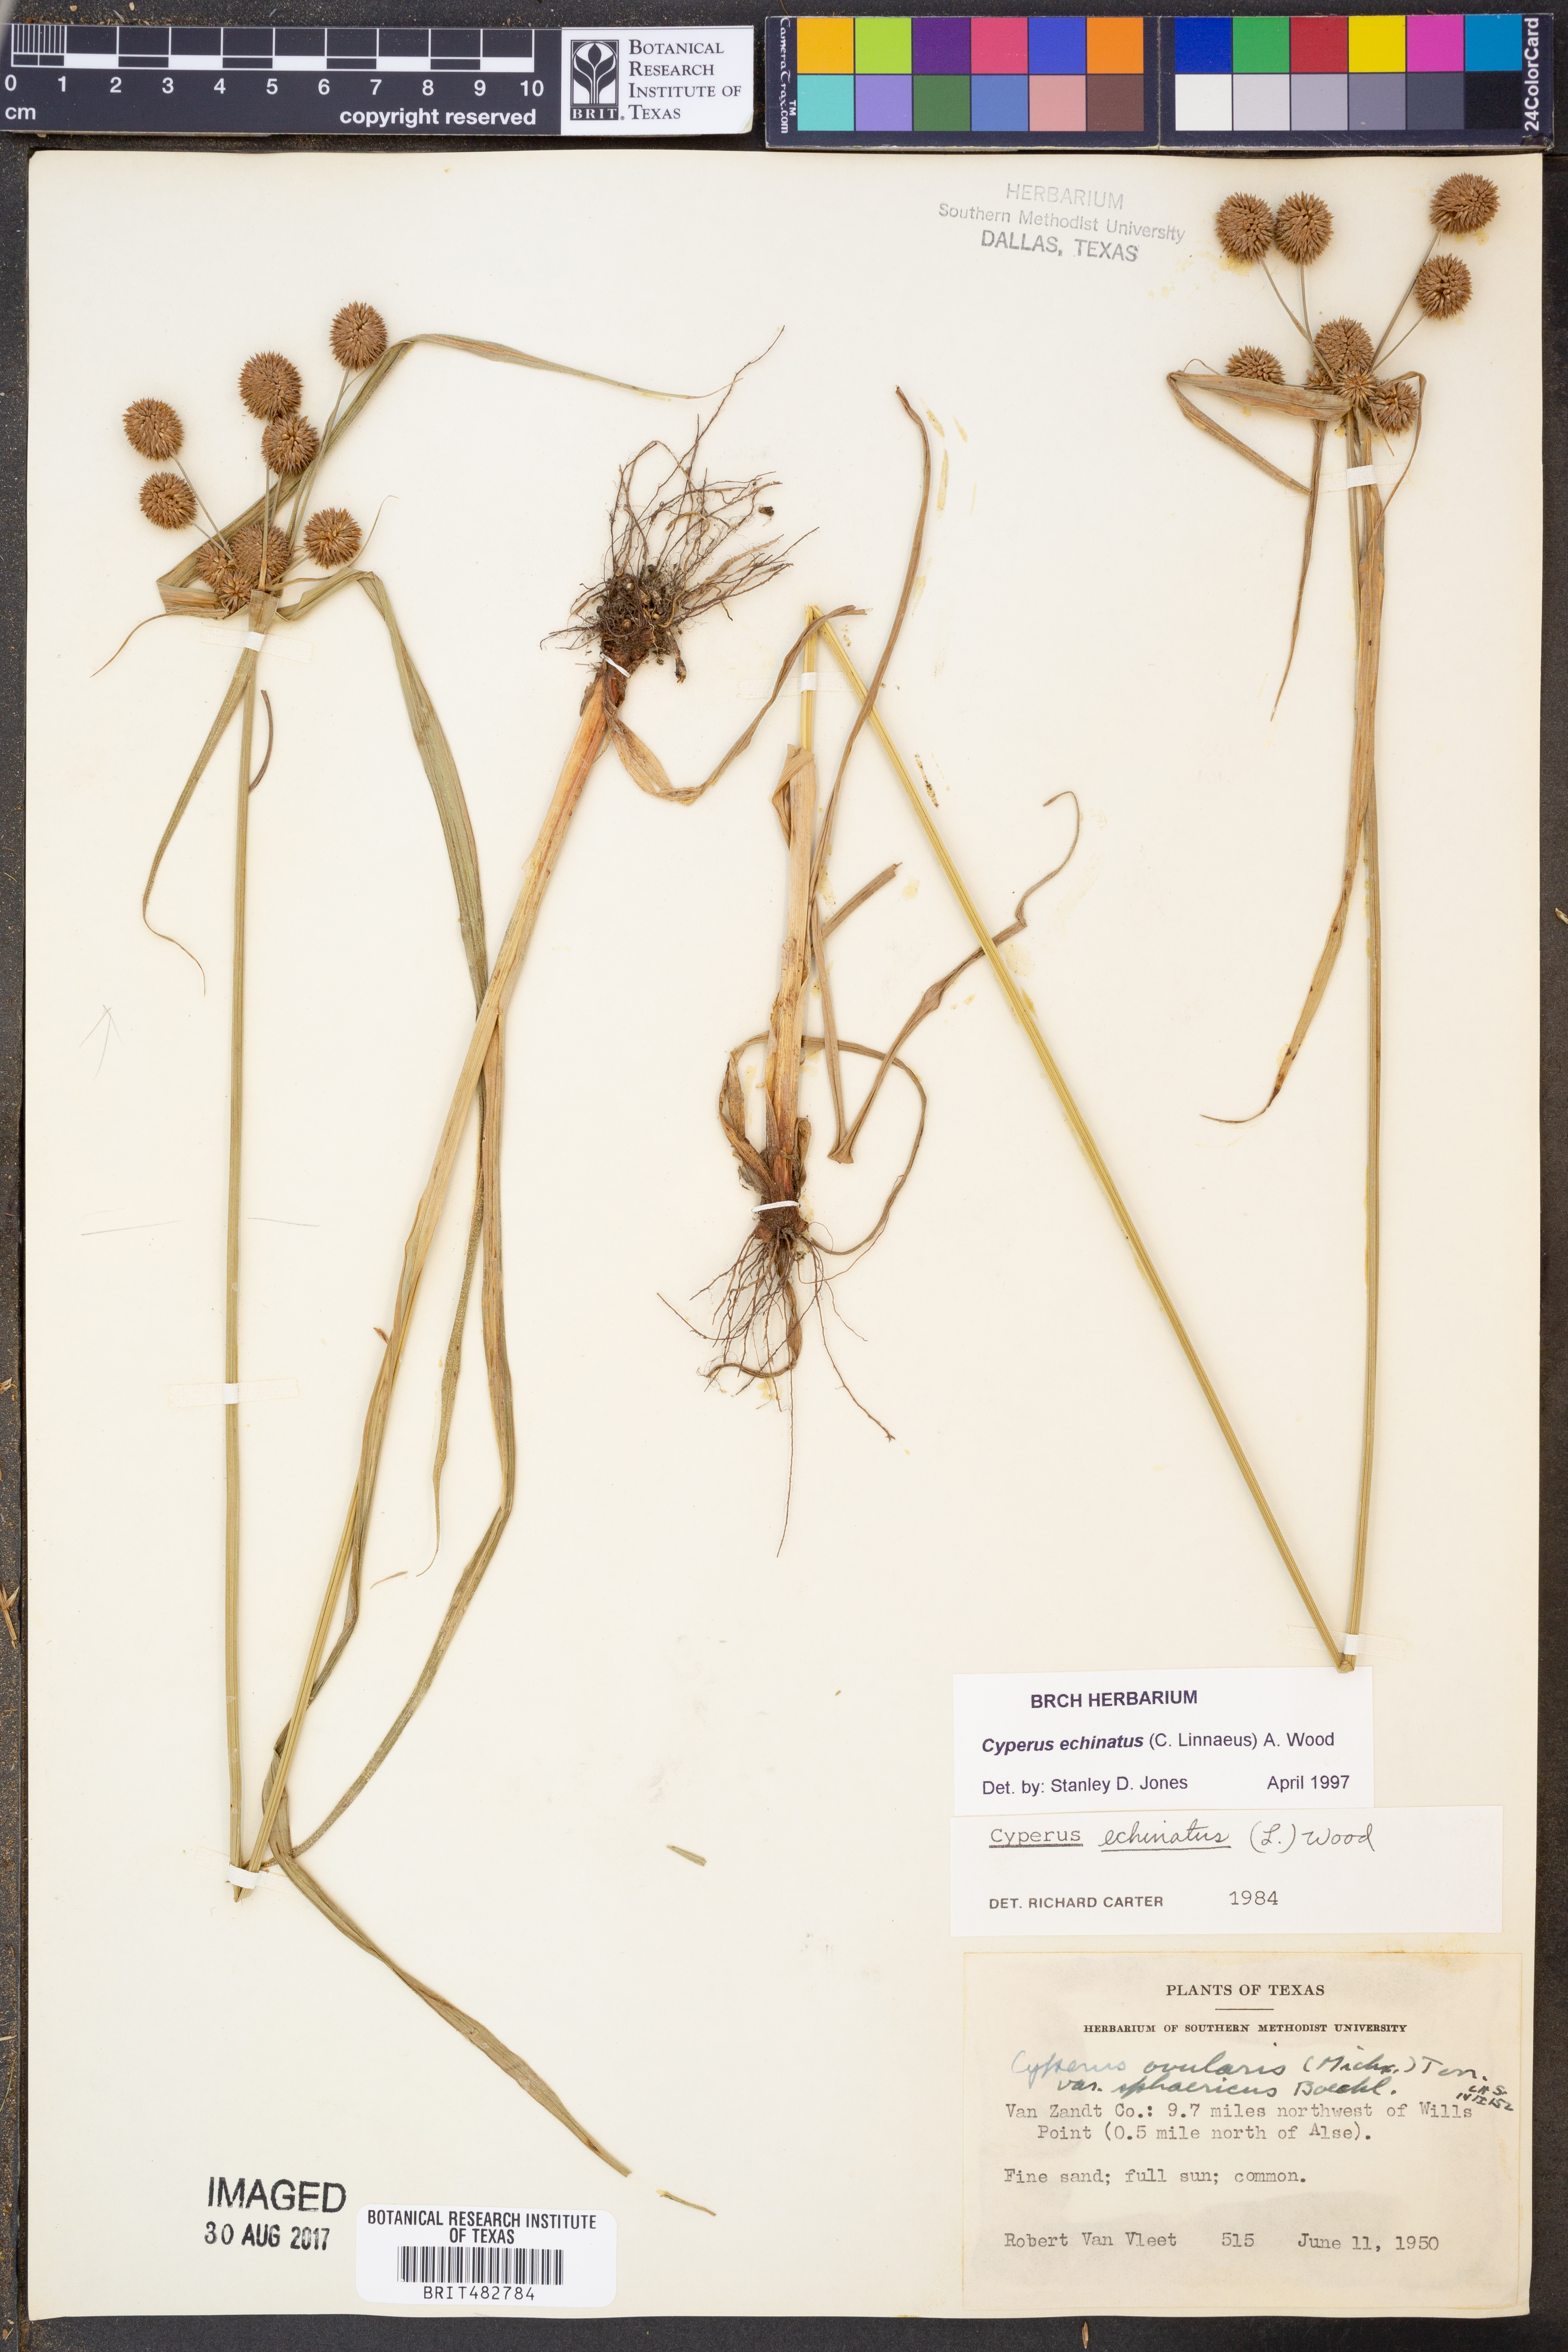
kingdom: Plantae
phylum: Tracheophyta
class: Liliopsida
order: Poales
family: Cyperaceae
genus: Cyperus
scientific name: Cyperus echinatus
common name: Teasel sedge
